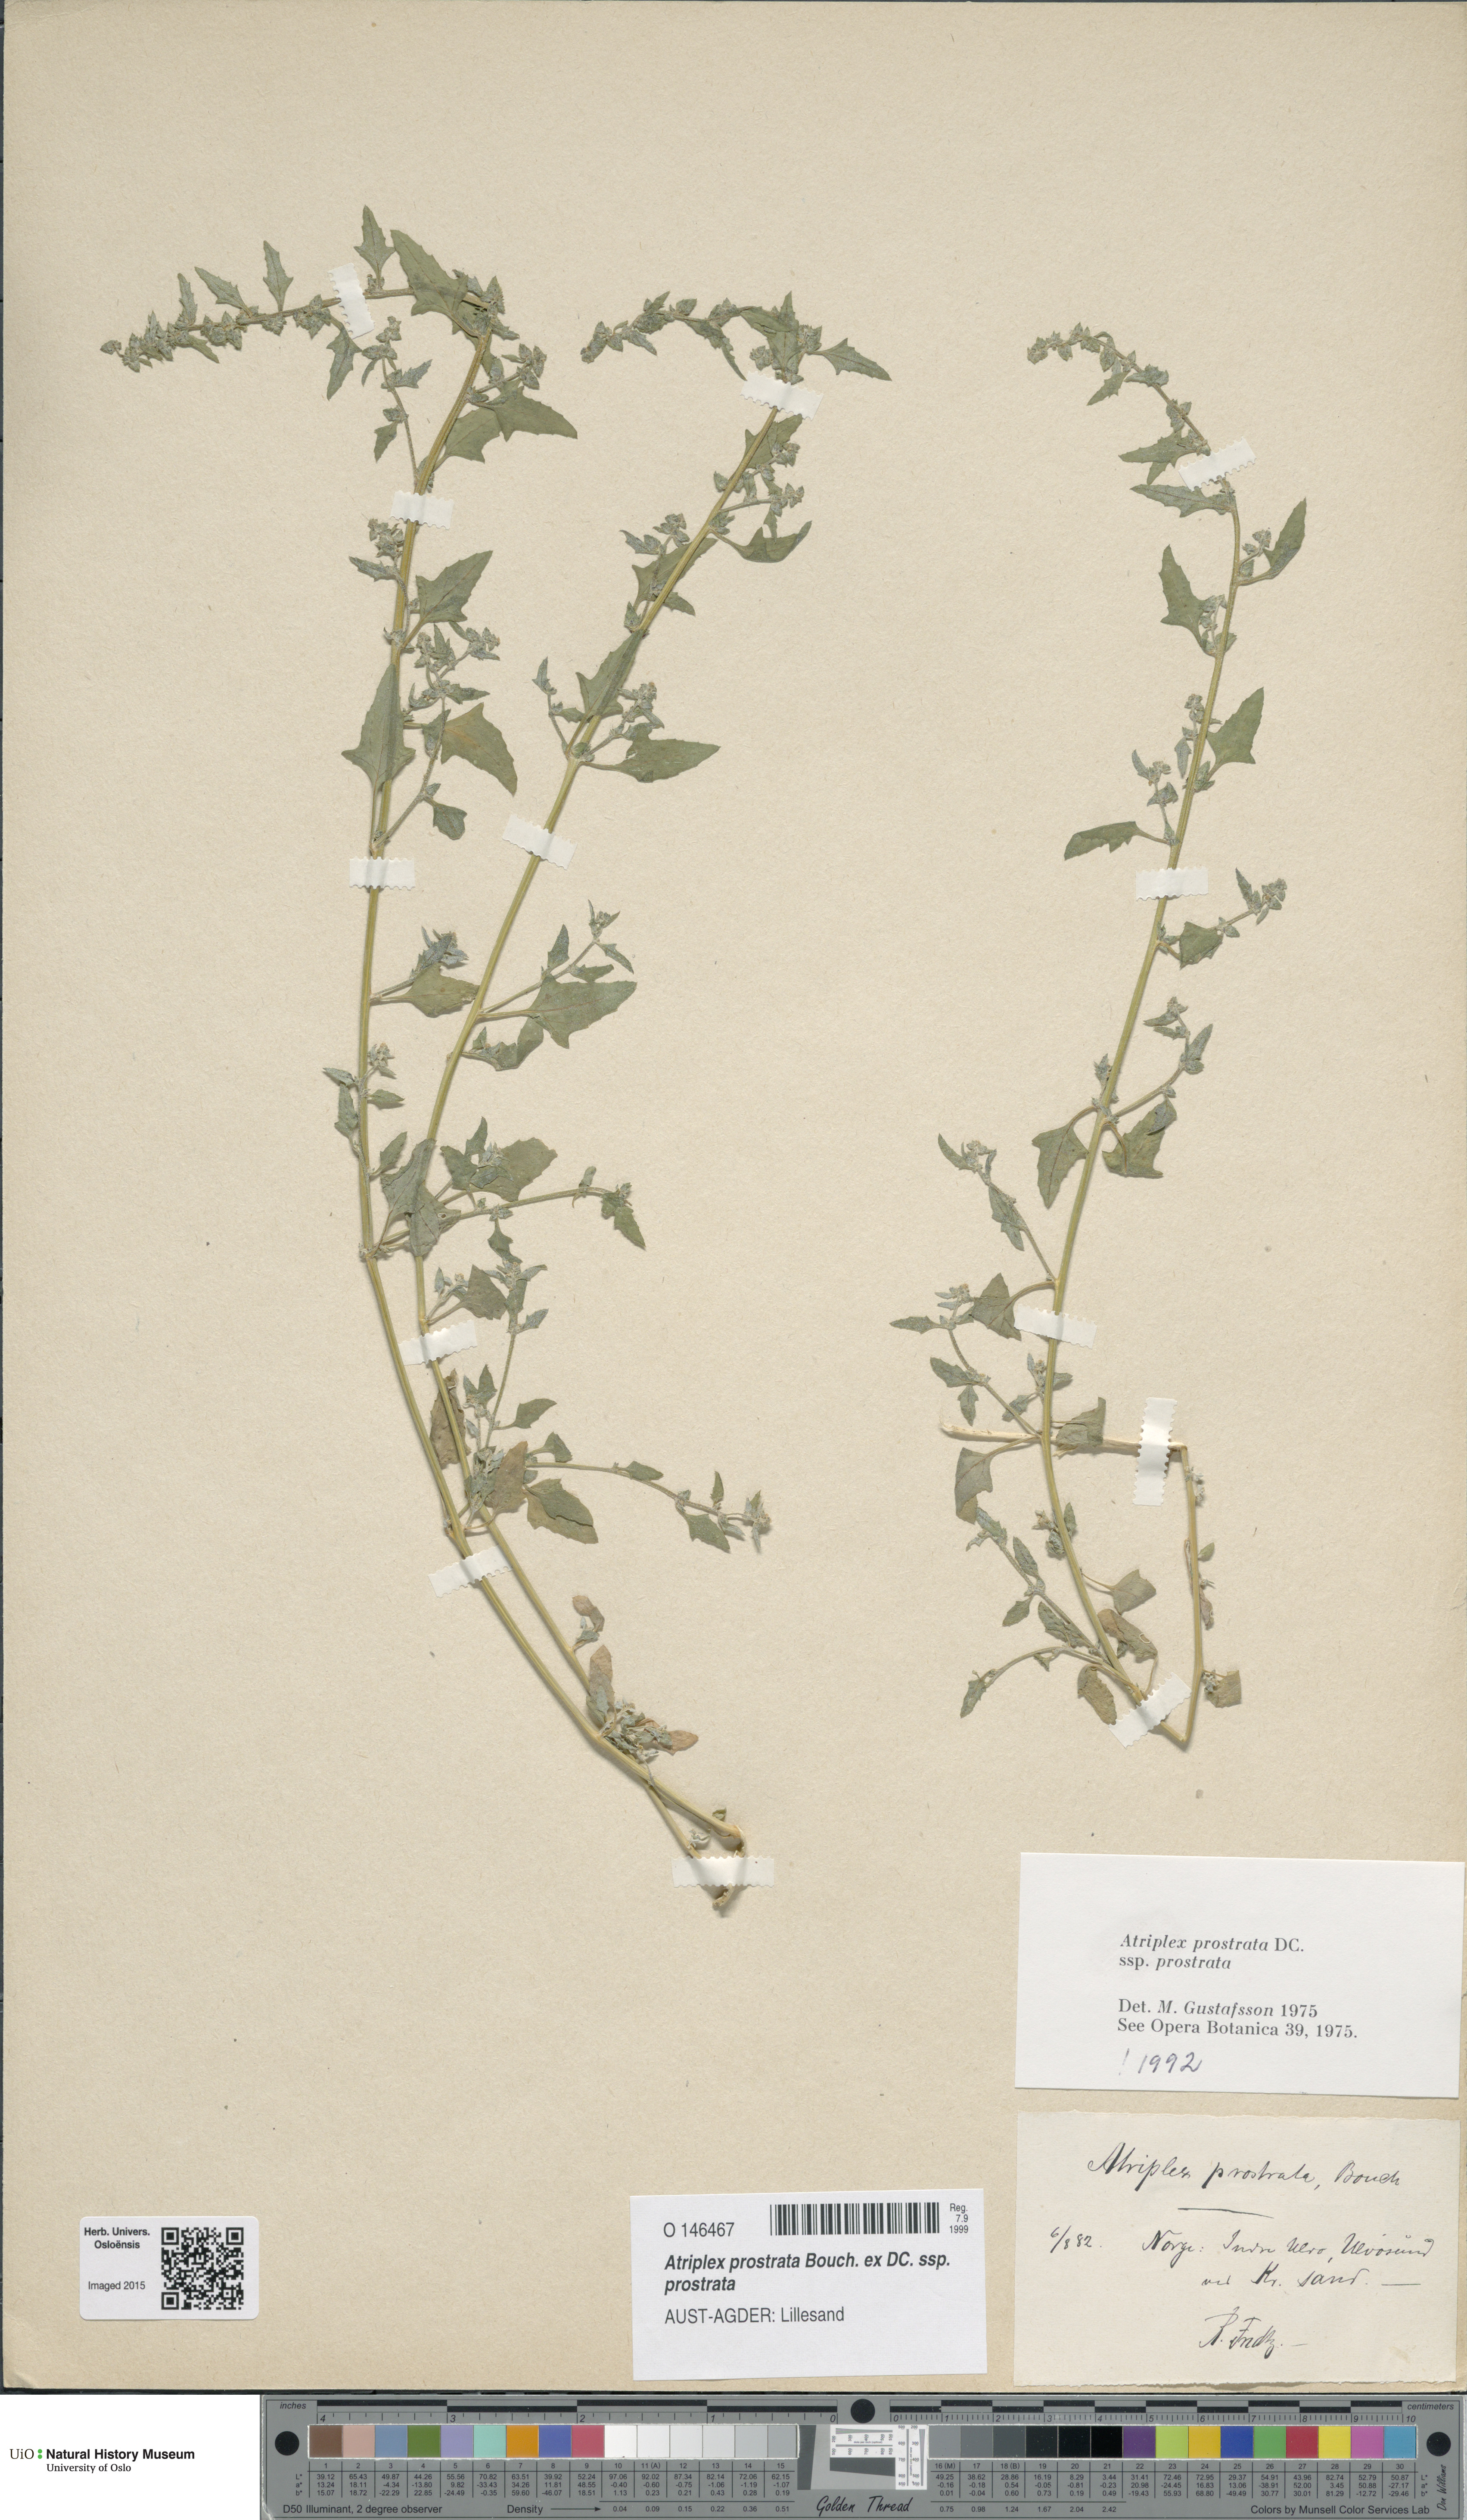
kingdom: Plantae
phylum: Tracheophyta
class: Magnoliopsida
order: Caryophyllales
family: Amaranthaceae
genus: Atriplex
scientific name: Atriplex prostrata
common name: Spear-leaved orache
